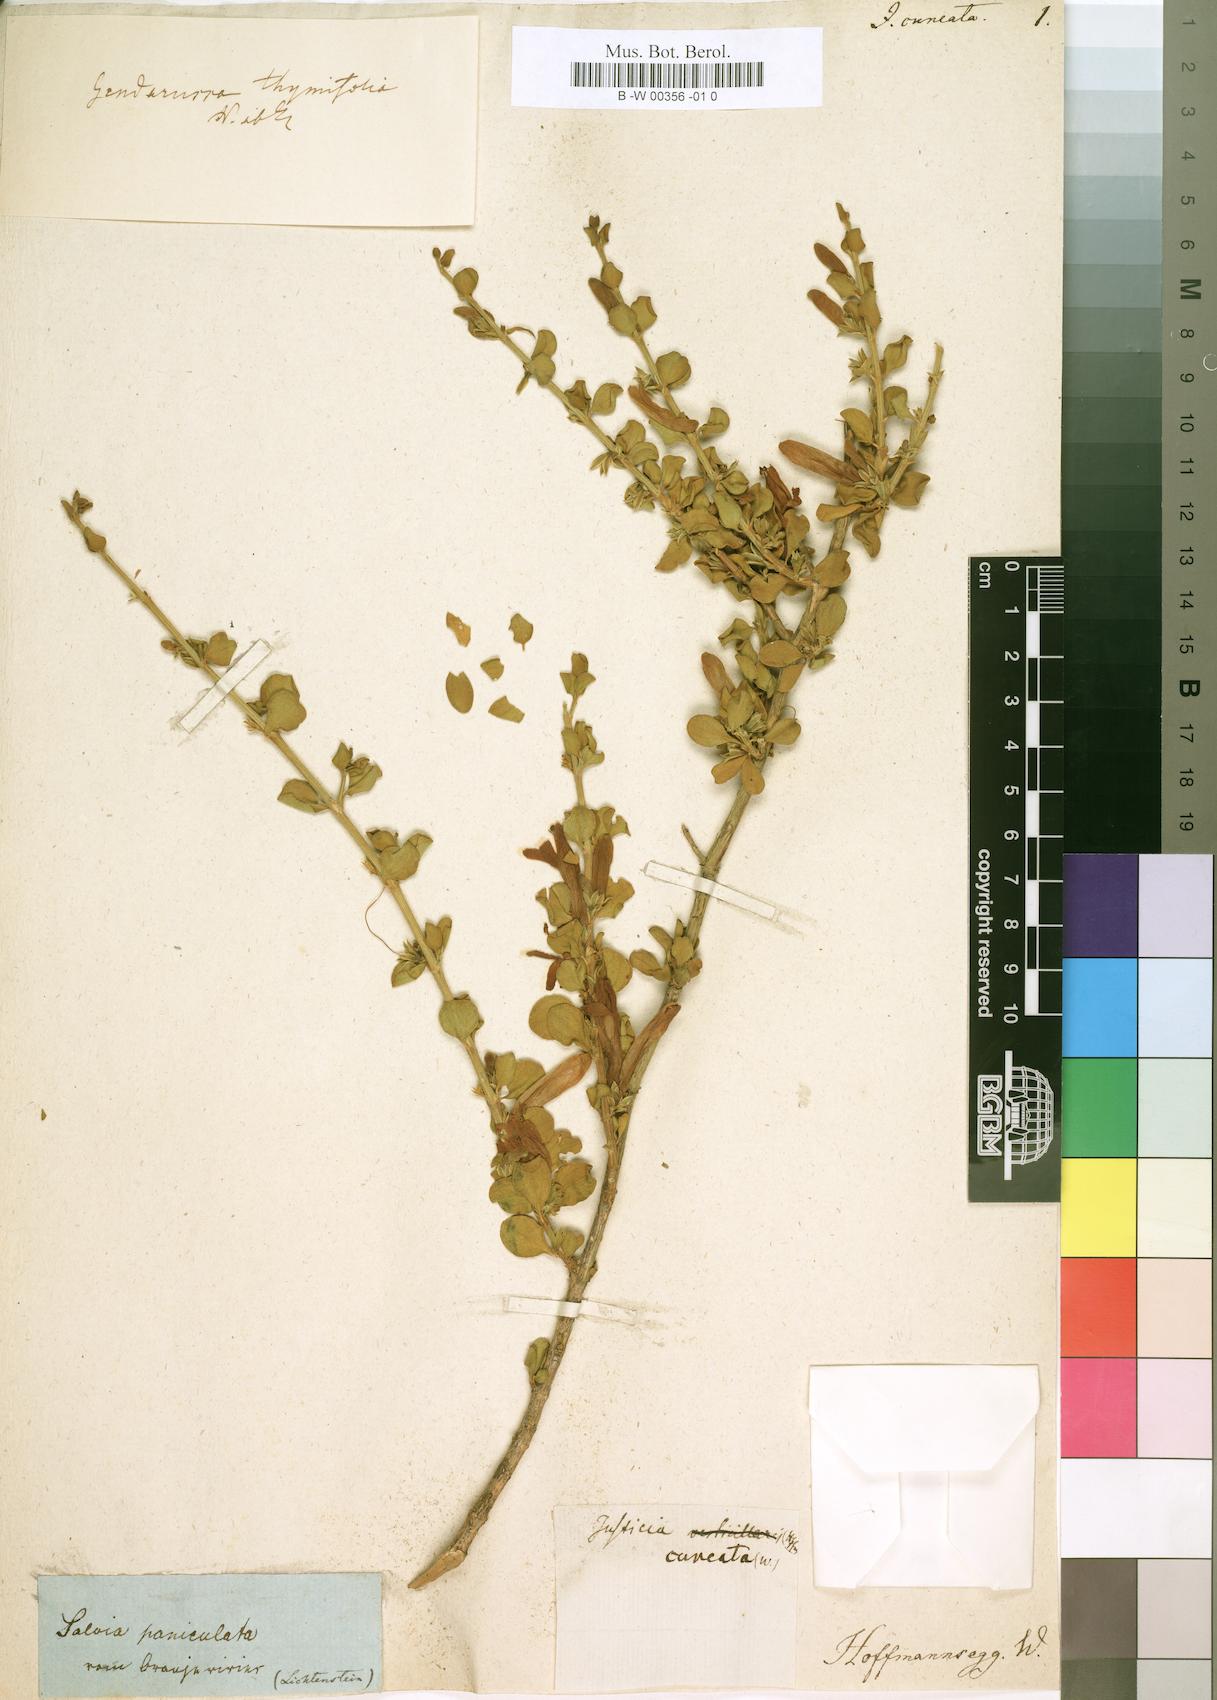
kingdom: Plantae
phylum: Tracheophyta
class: Magnoliopsida
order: Lamiales
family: Acanthaceae
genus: Justicia
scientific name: Justicia cuneata
